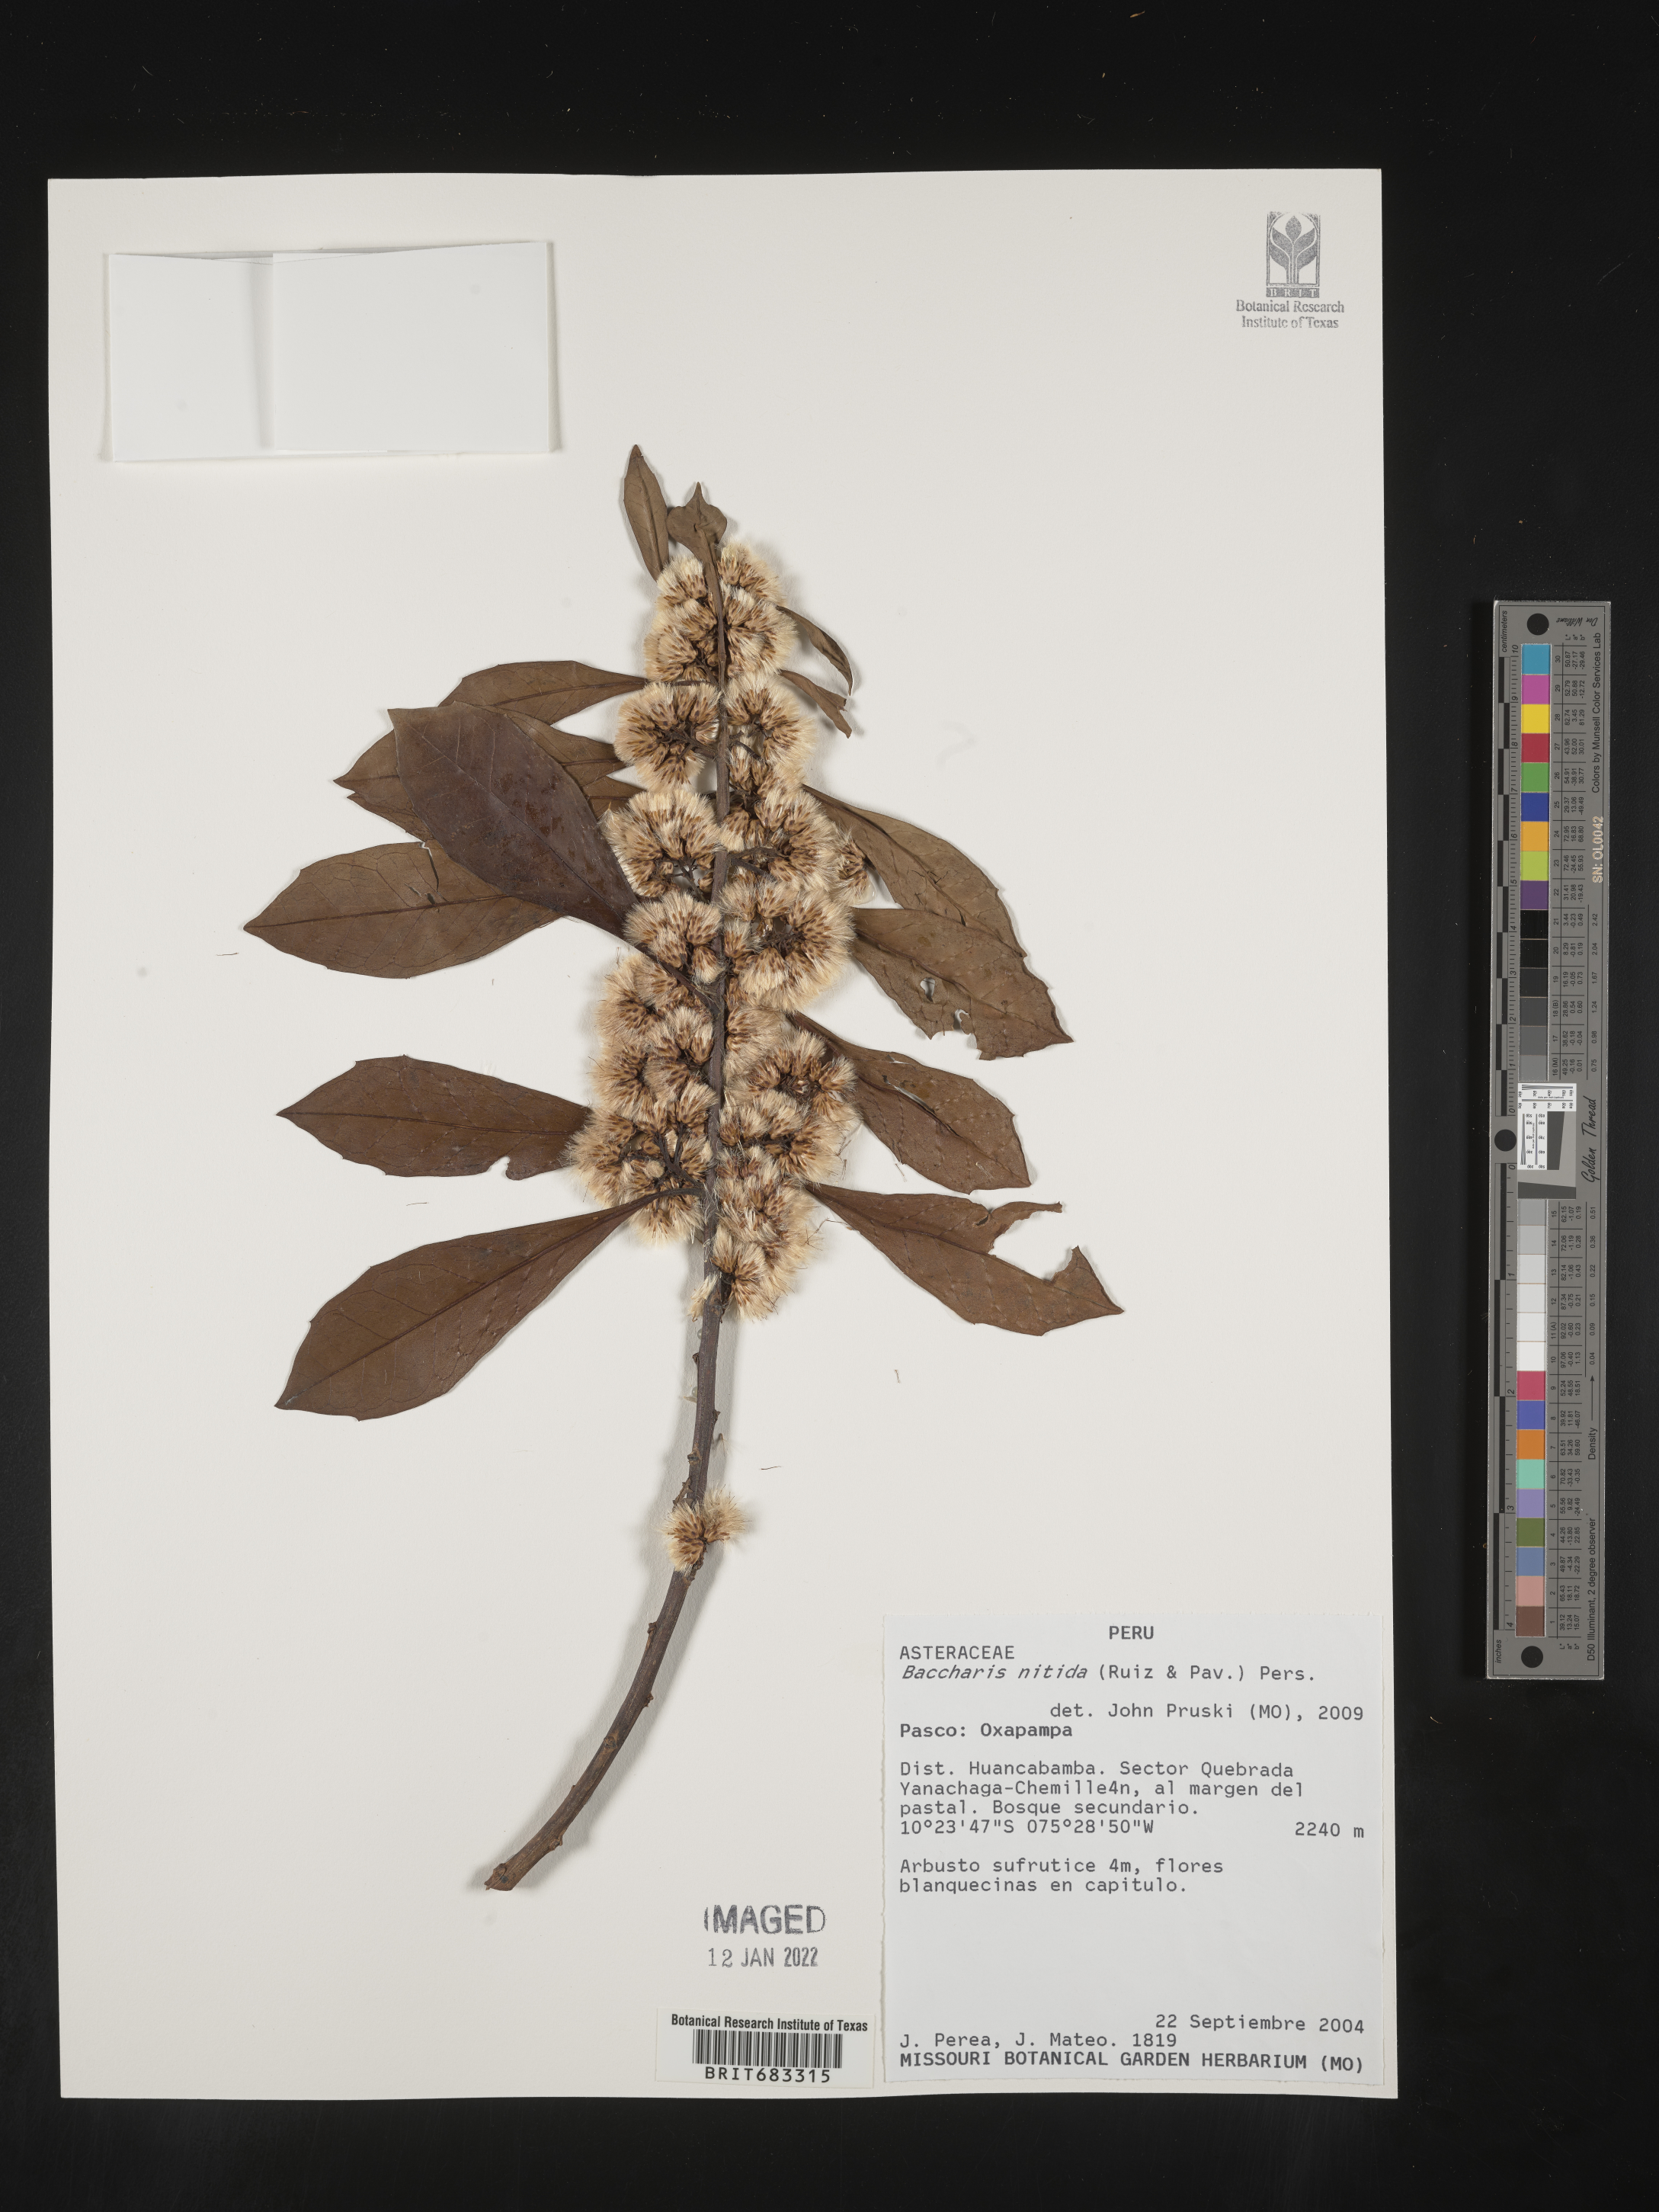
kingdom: Plantae
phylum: Tracheophyta
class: Magnoliopsida
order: Asterales
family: Asteraceae
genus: Baccharis
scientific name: Baccharis
